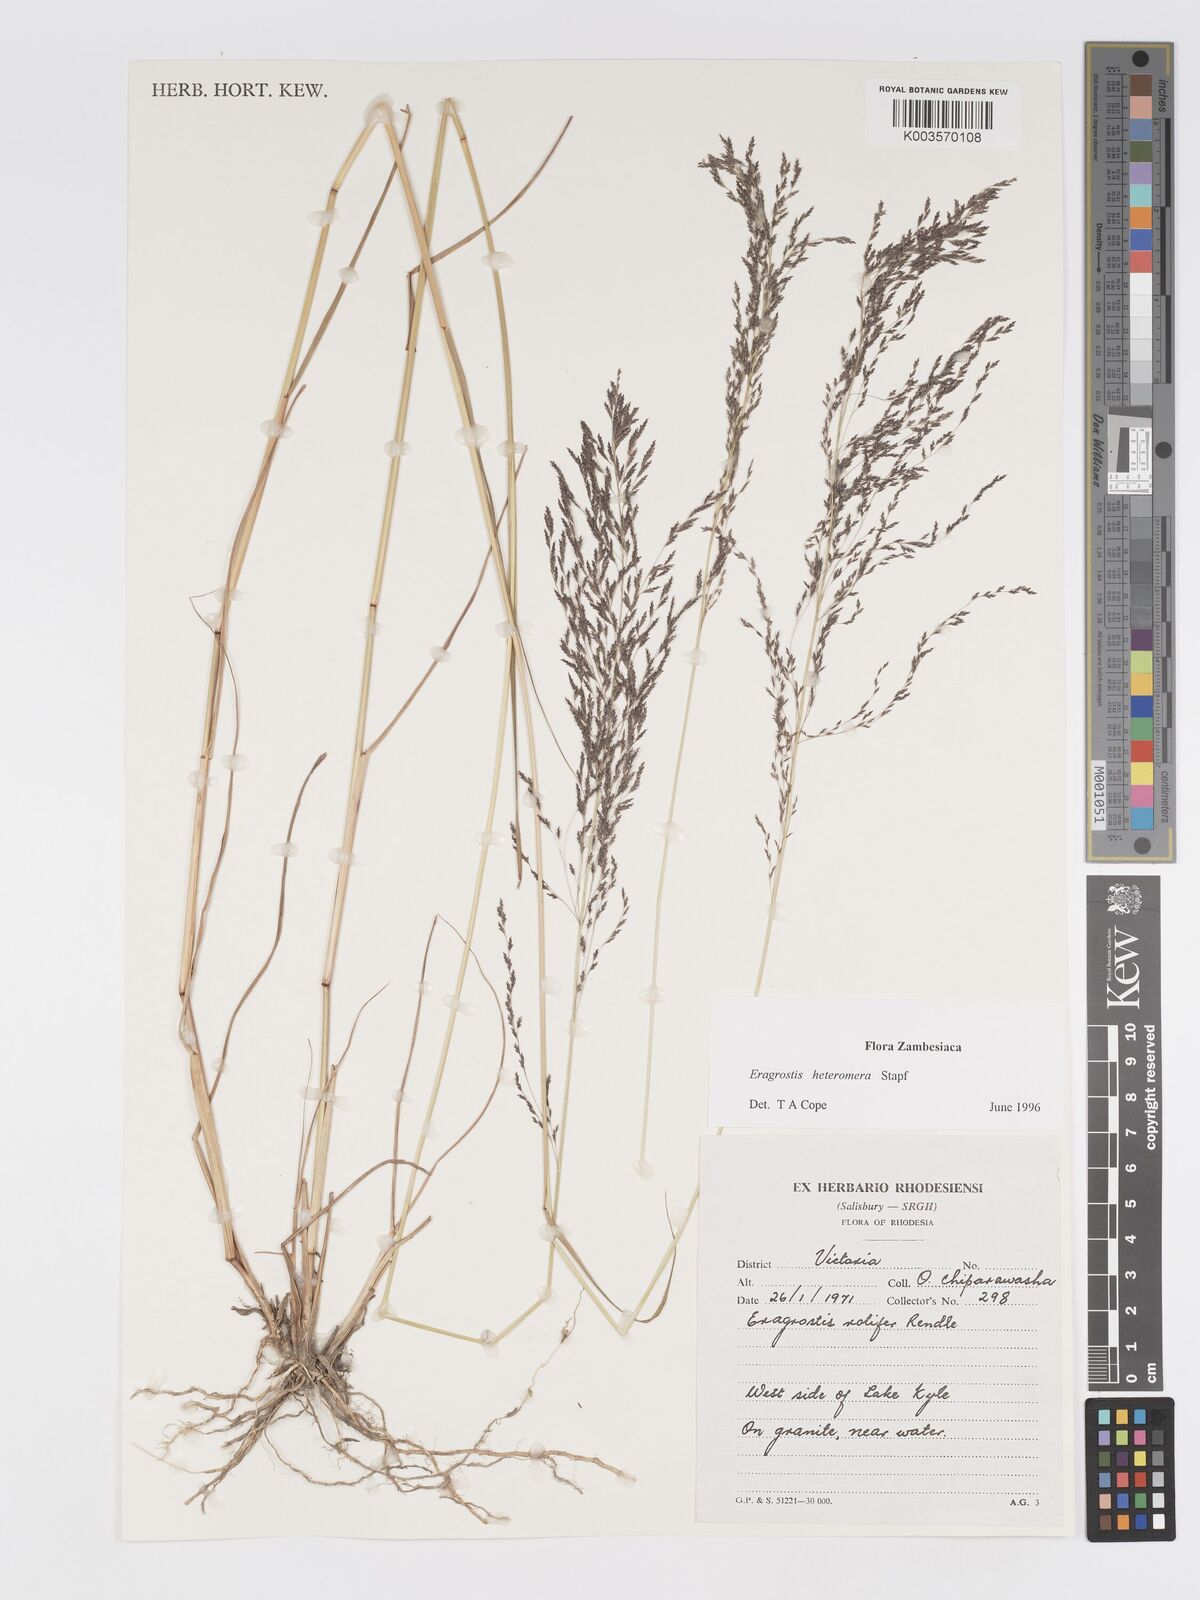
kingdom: Plantae
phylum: Tracheophyta
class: Liliopsida
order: Poales
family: Poaceae
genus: Eragrostis
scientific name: Eragrostis heteromera
